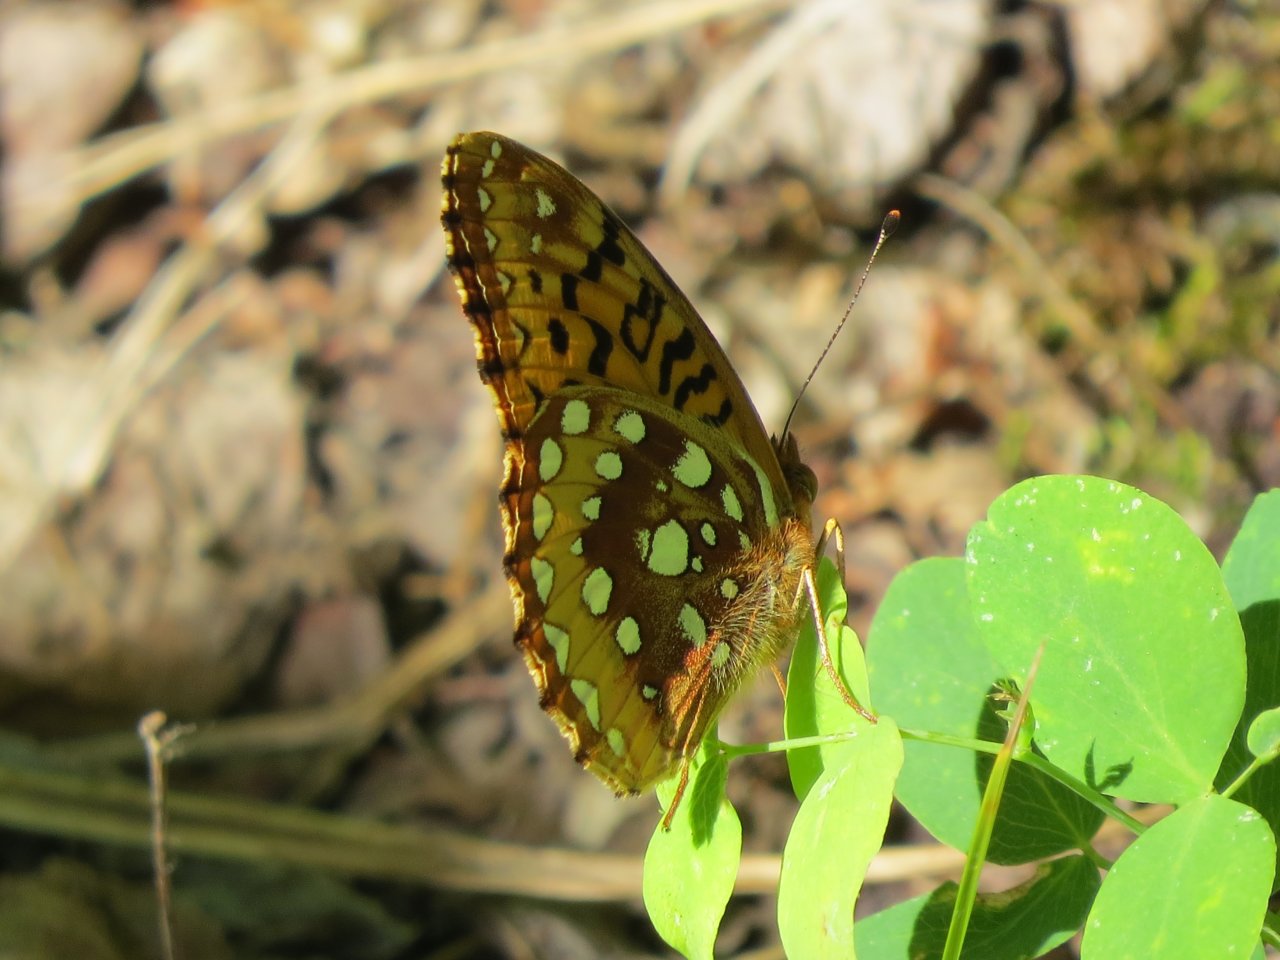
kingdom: Animalia
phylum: Arthropoda
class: Insecta
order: Lepidoptera
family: Nymphalidae
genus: Speyeria
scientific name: Speyeria cybele
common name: Great Spangled Fritillary
